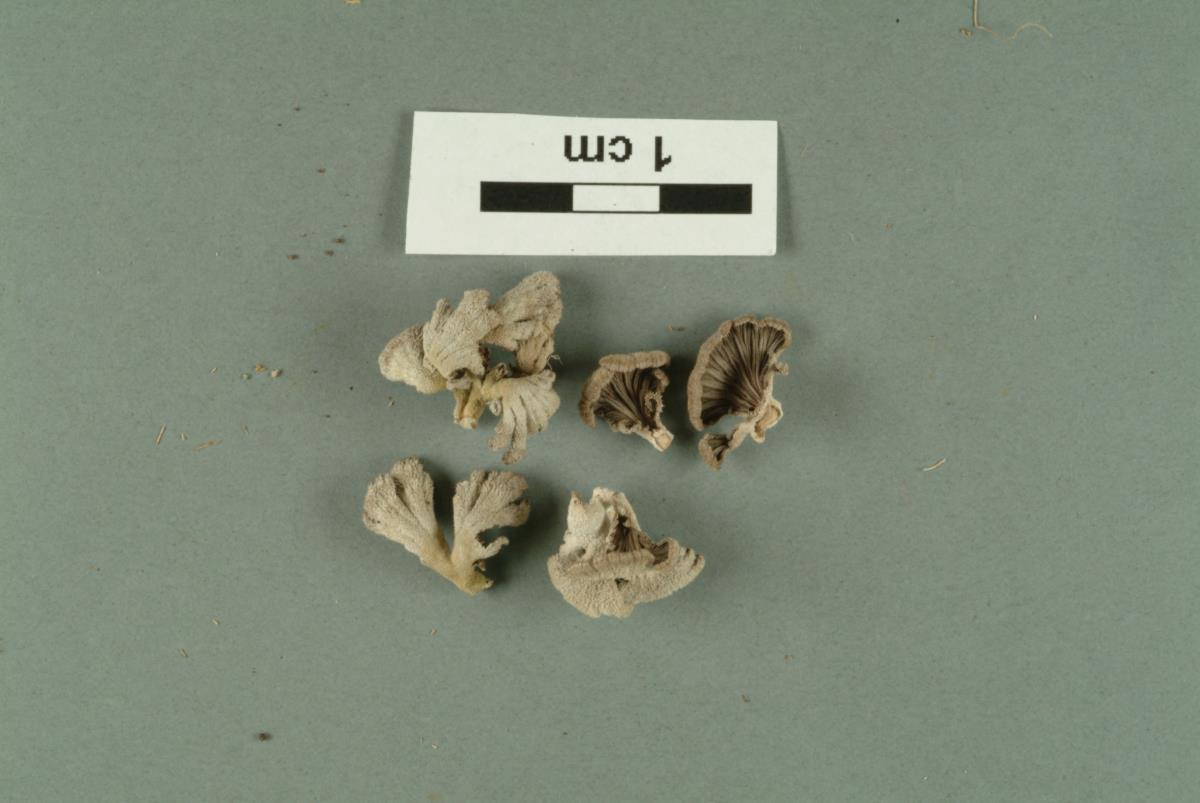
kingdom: Fungi
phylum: Basidiomycota
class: Agaricomycetes
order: Agaricales
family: Schizophyllaceae
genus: Schizophyllum
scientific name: Schizophyllum commune
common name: Common porecrust
